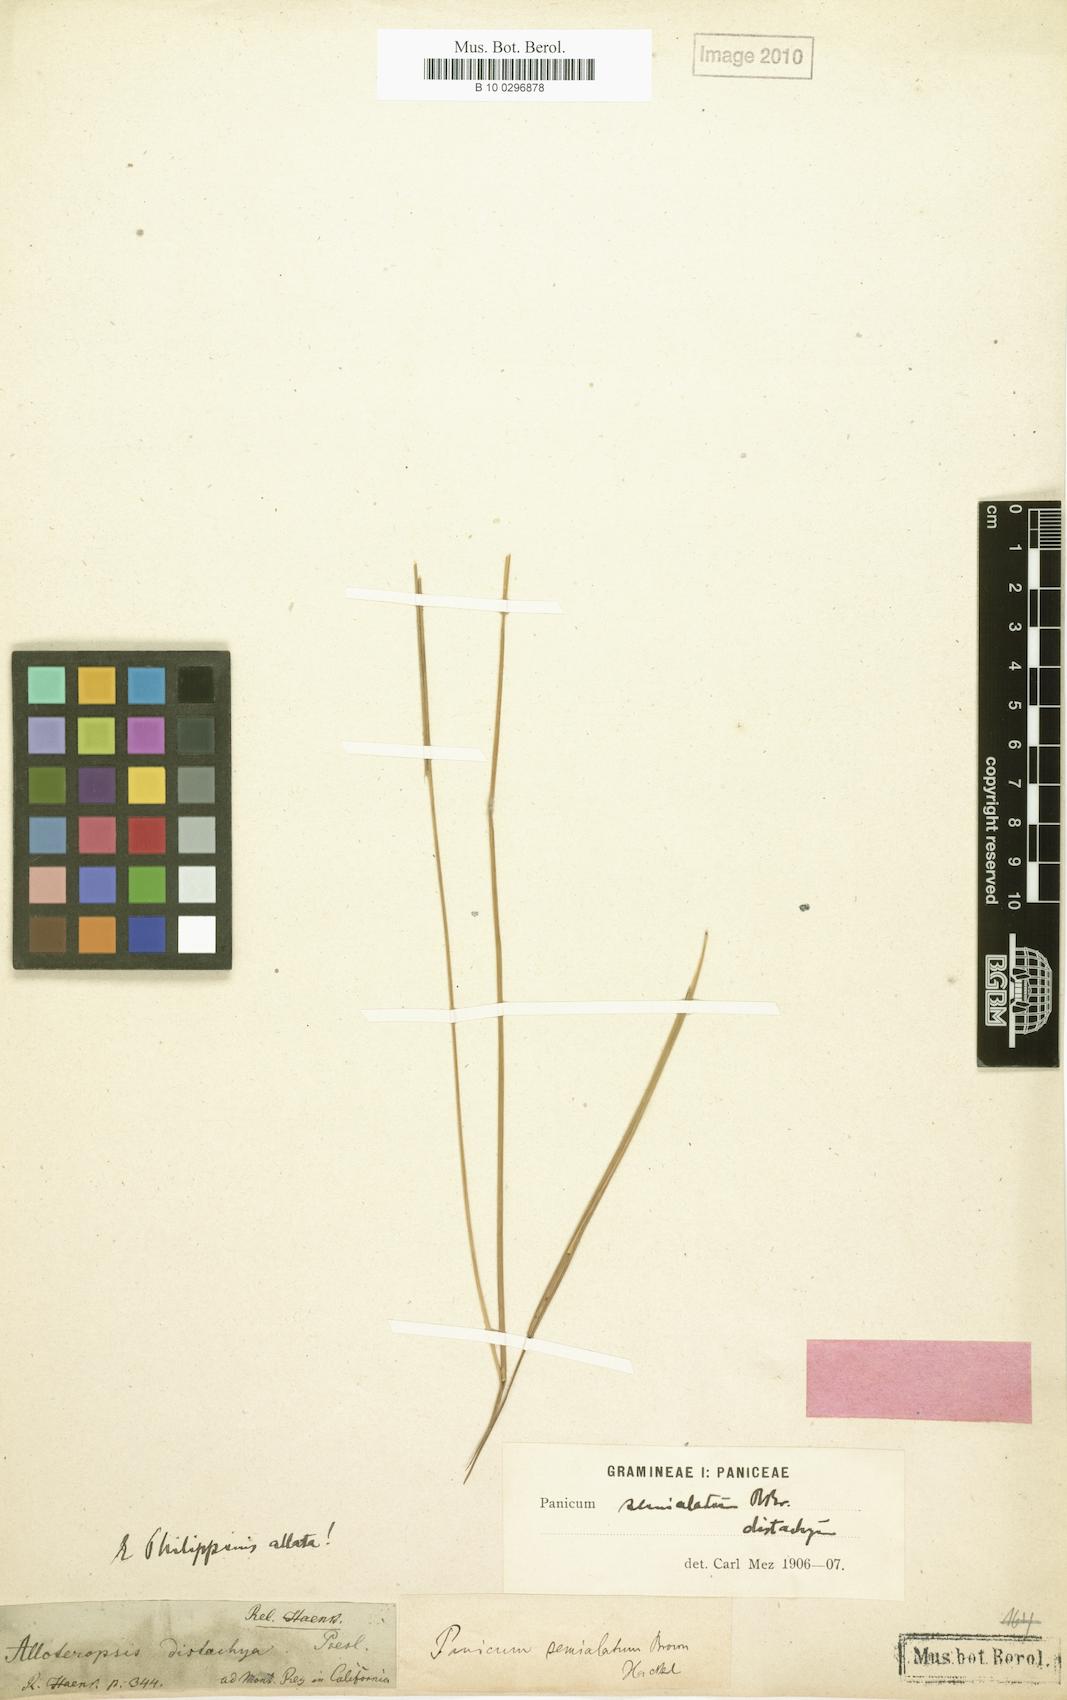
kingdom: Plantae
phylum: Tracheophyta
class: Liliopsida
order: Poales
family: Poaceae
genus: Alloteropsis
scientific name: Alloteropsis semialata
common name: Cockatoo grass
